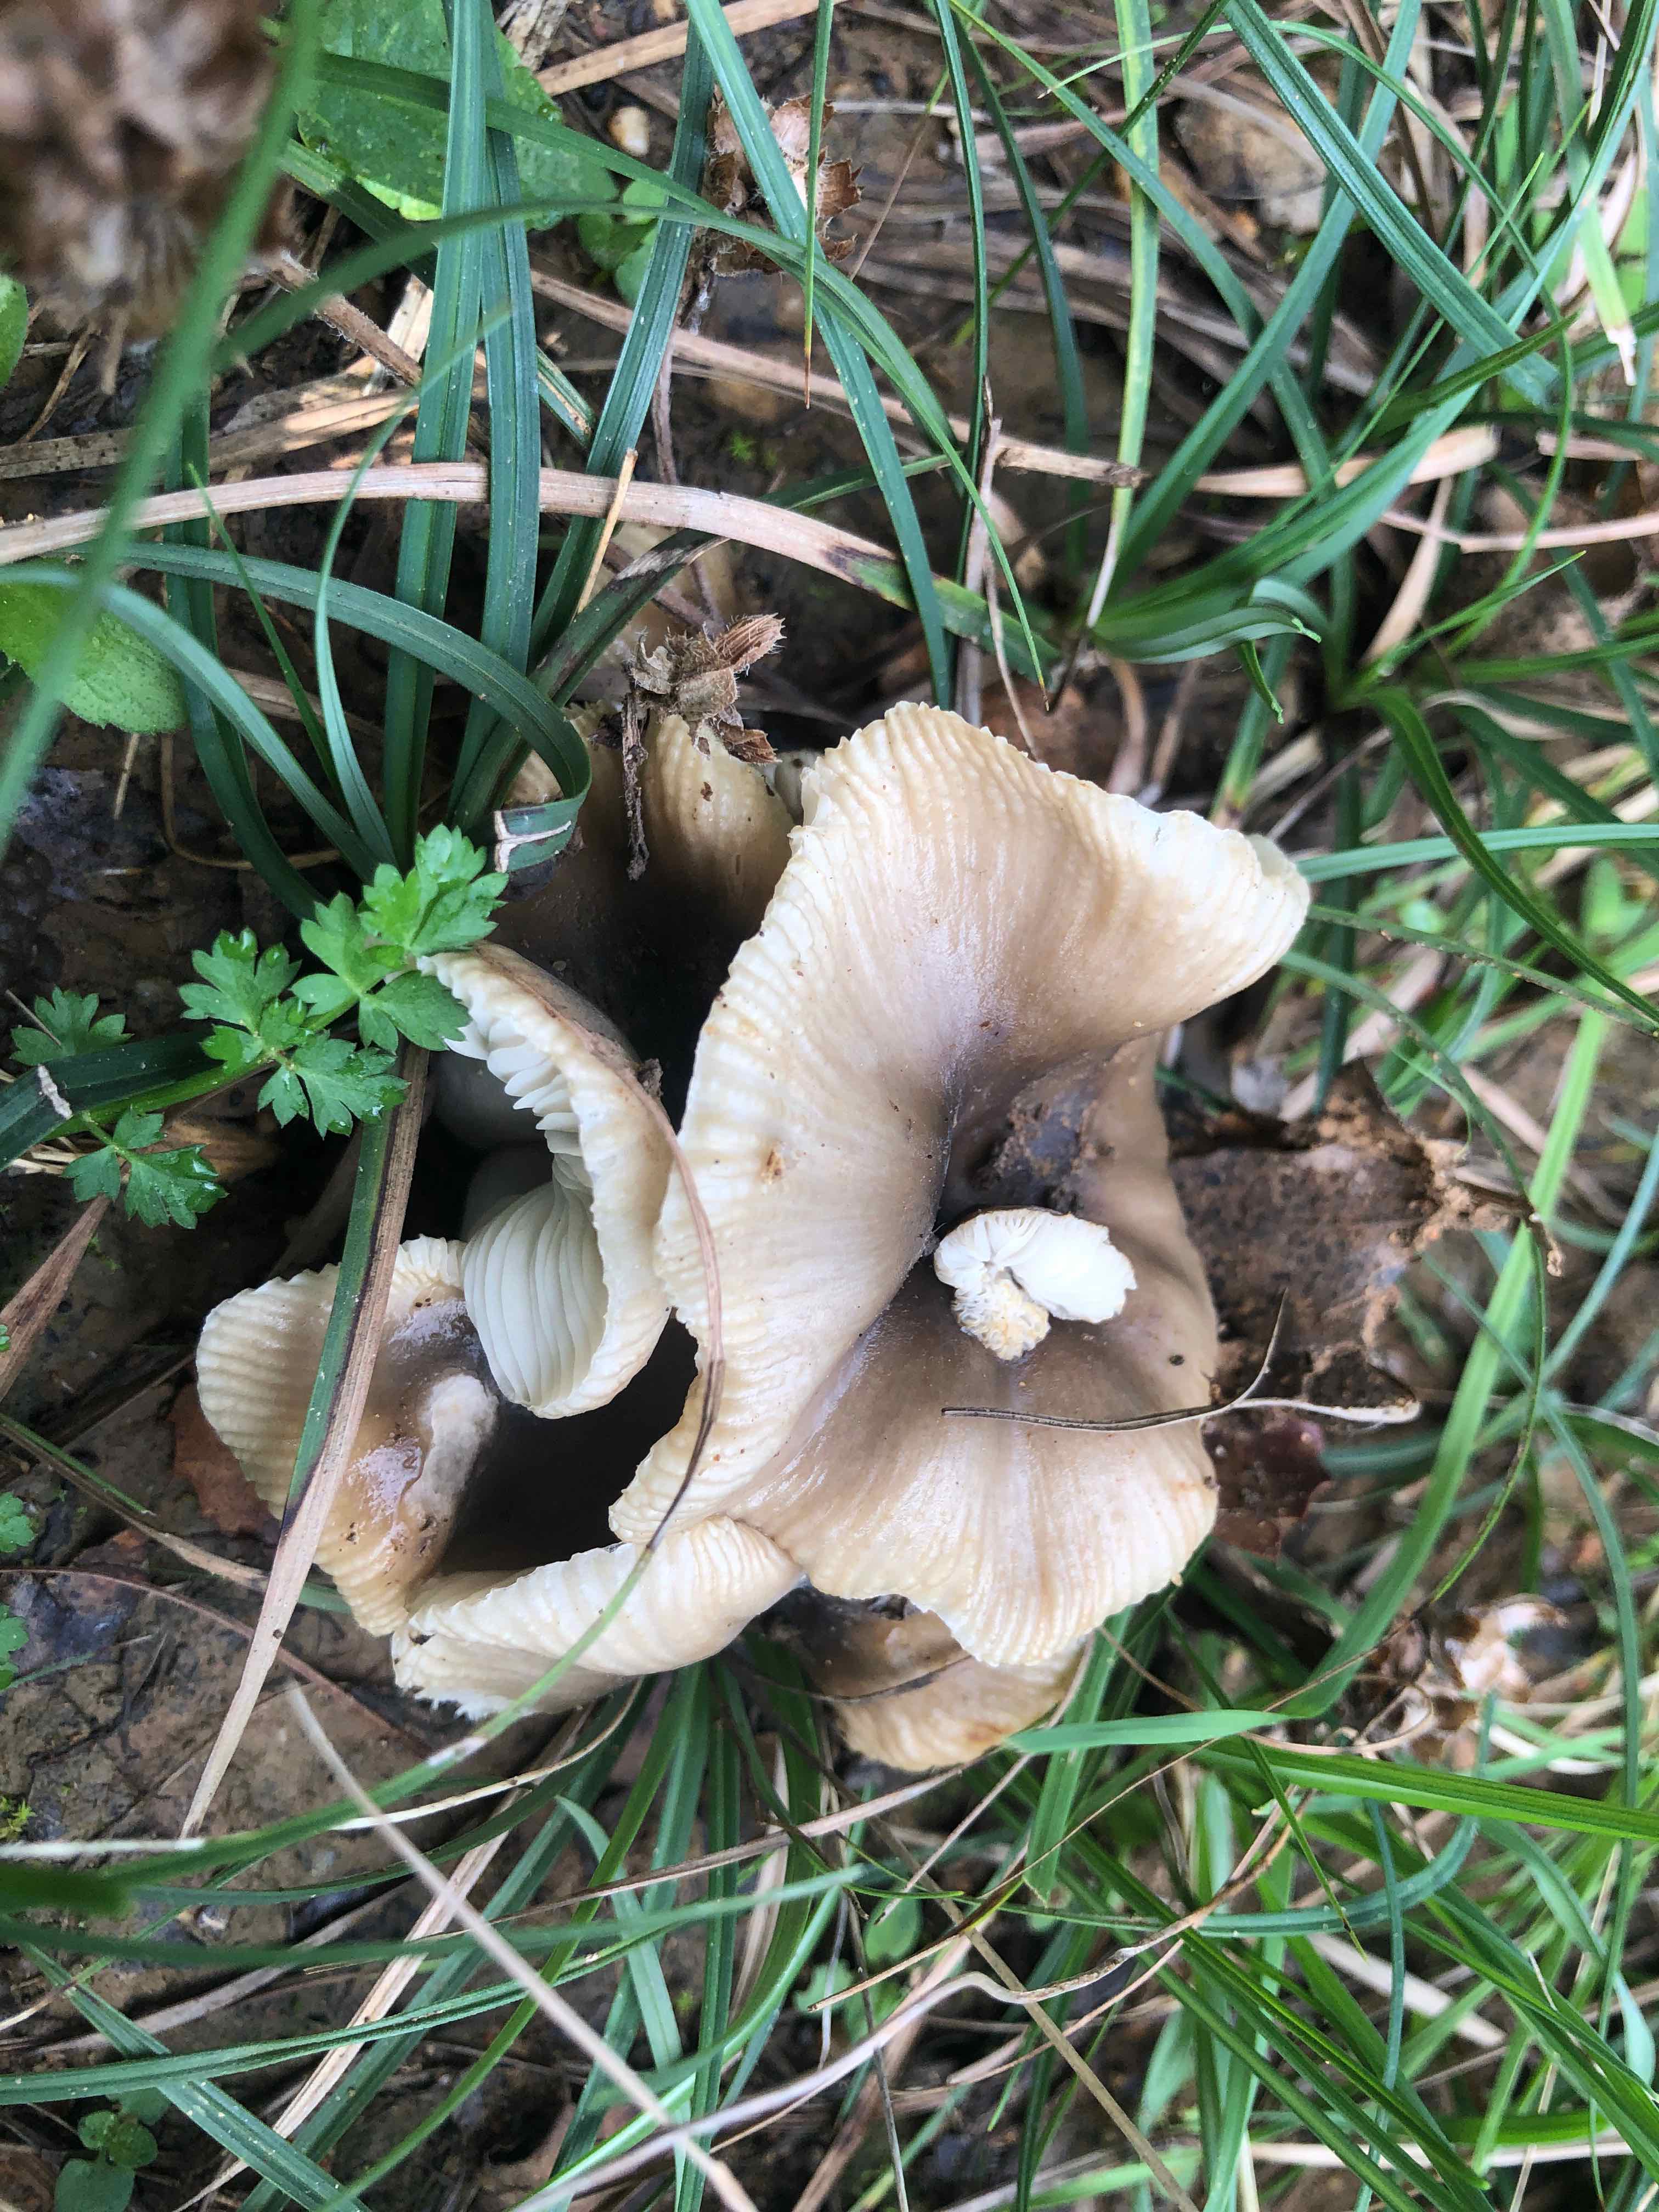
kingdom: Fungi
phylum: Basidiomycota
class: Agaricomycetes
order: Russulales
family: Russulaceae
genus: Russula
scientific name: Russula recondita
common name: mild kam-skørhat
